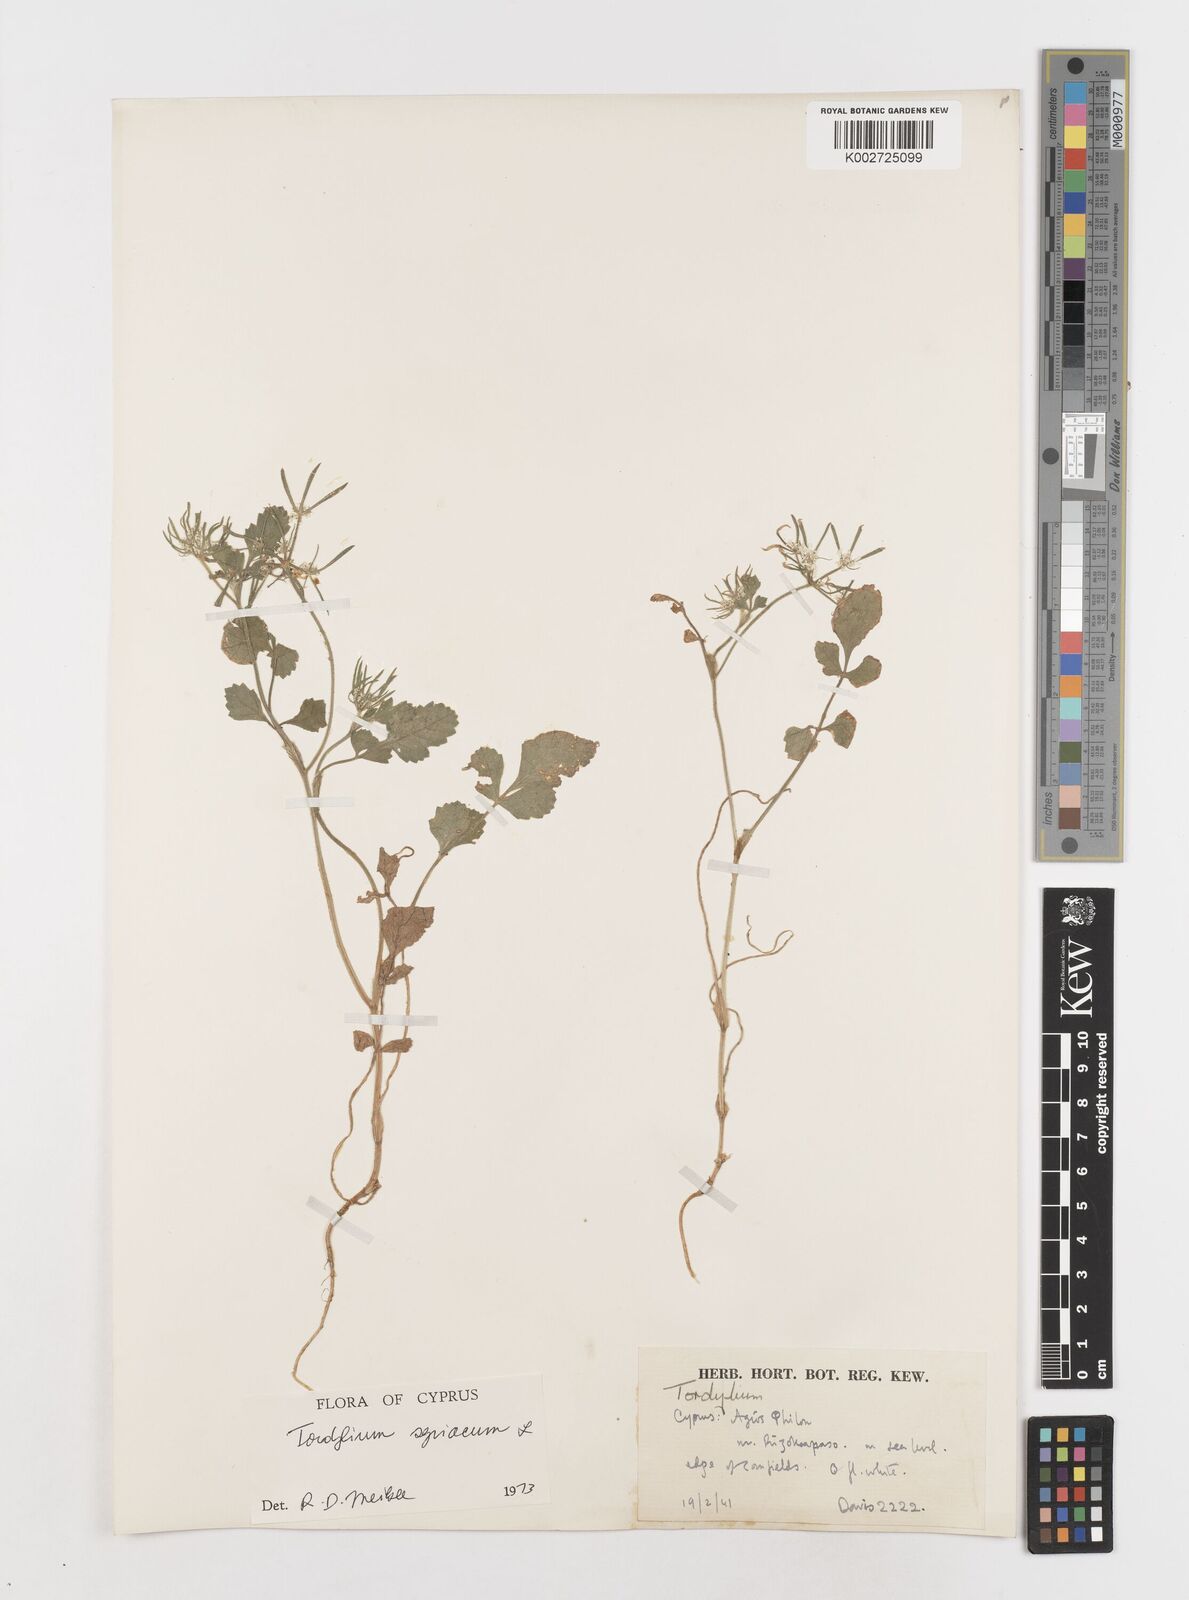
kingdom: Plantae
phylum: Tracheophyta
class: Magnoliopsida
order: Apiales
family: Apiaceae
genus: Tordylium
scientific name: Tordylium syriacum
